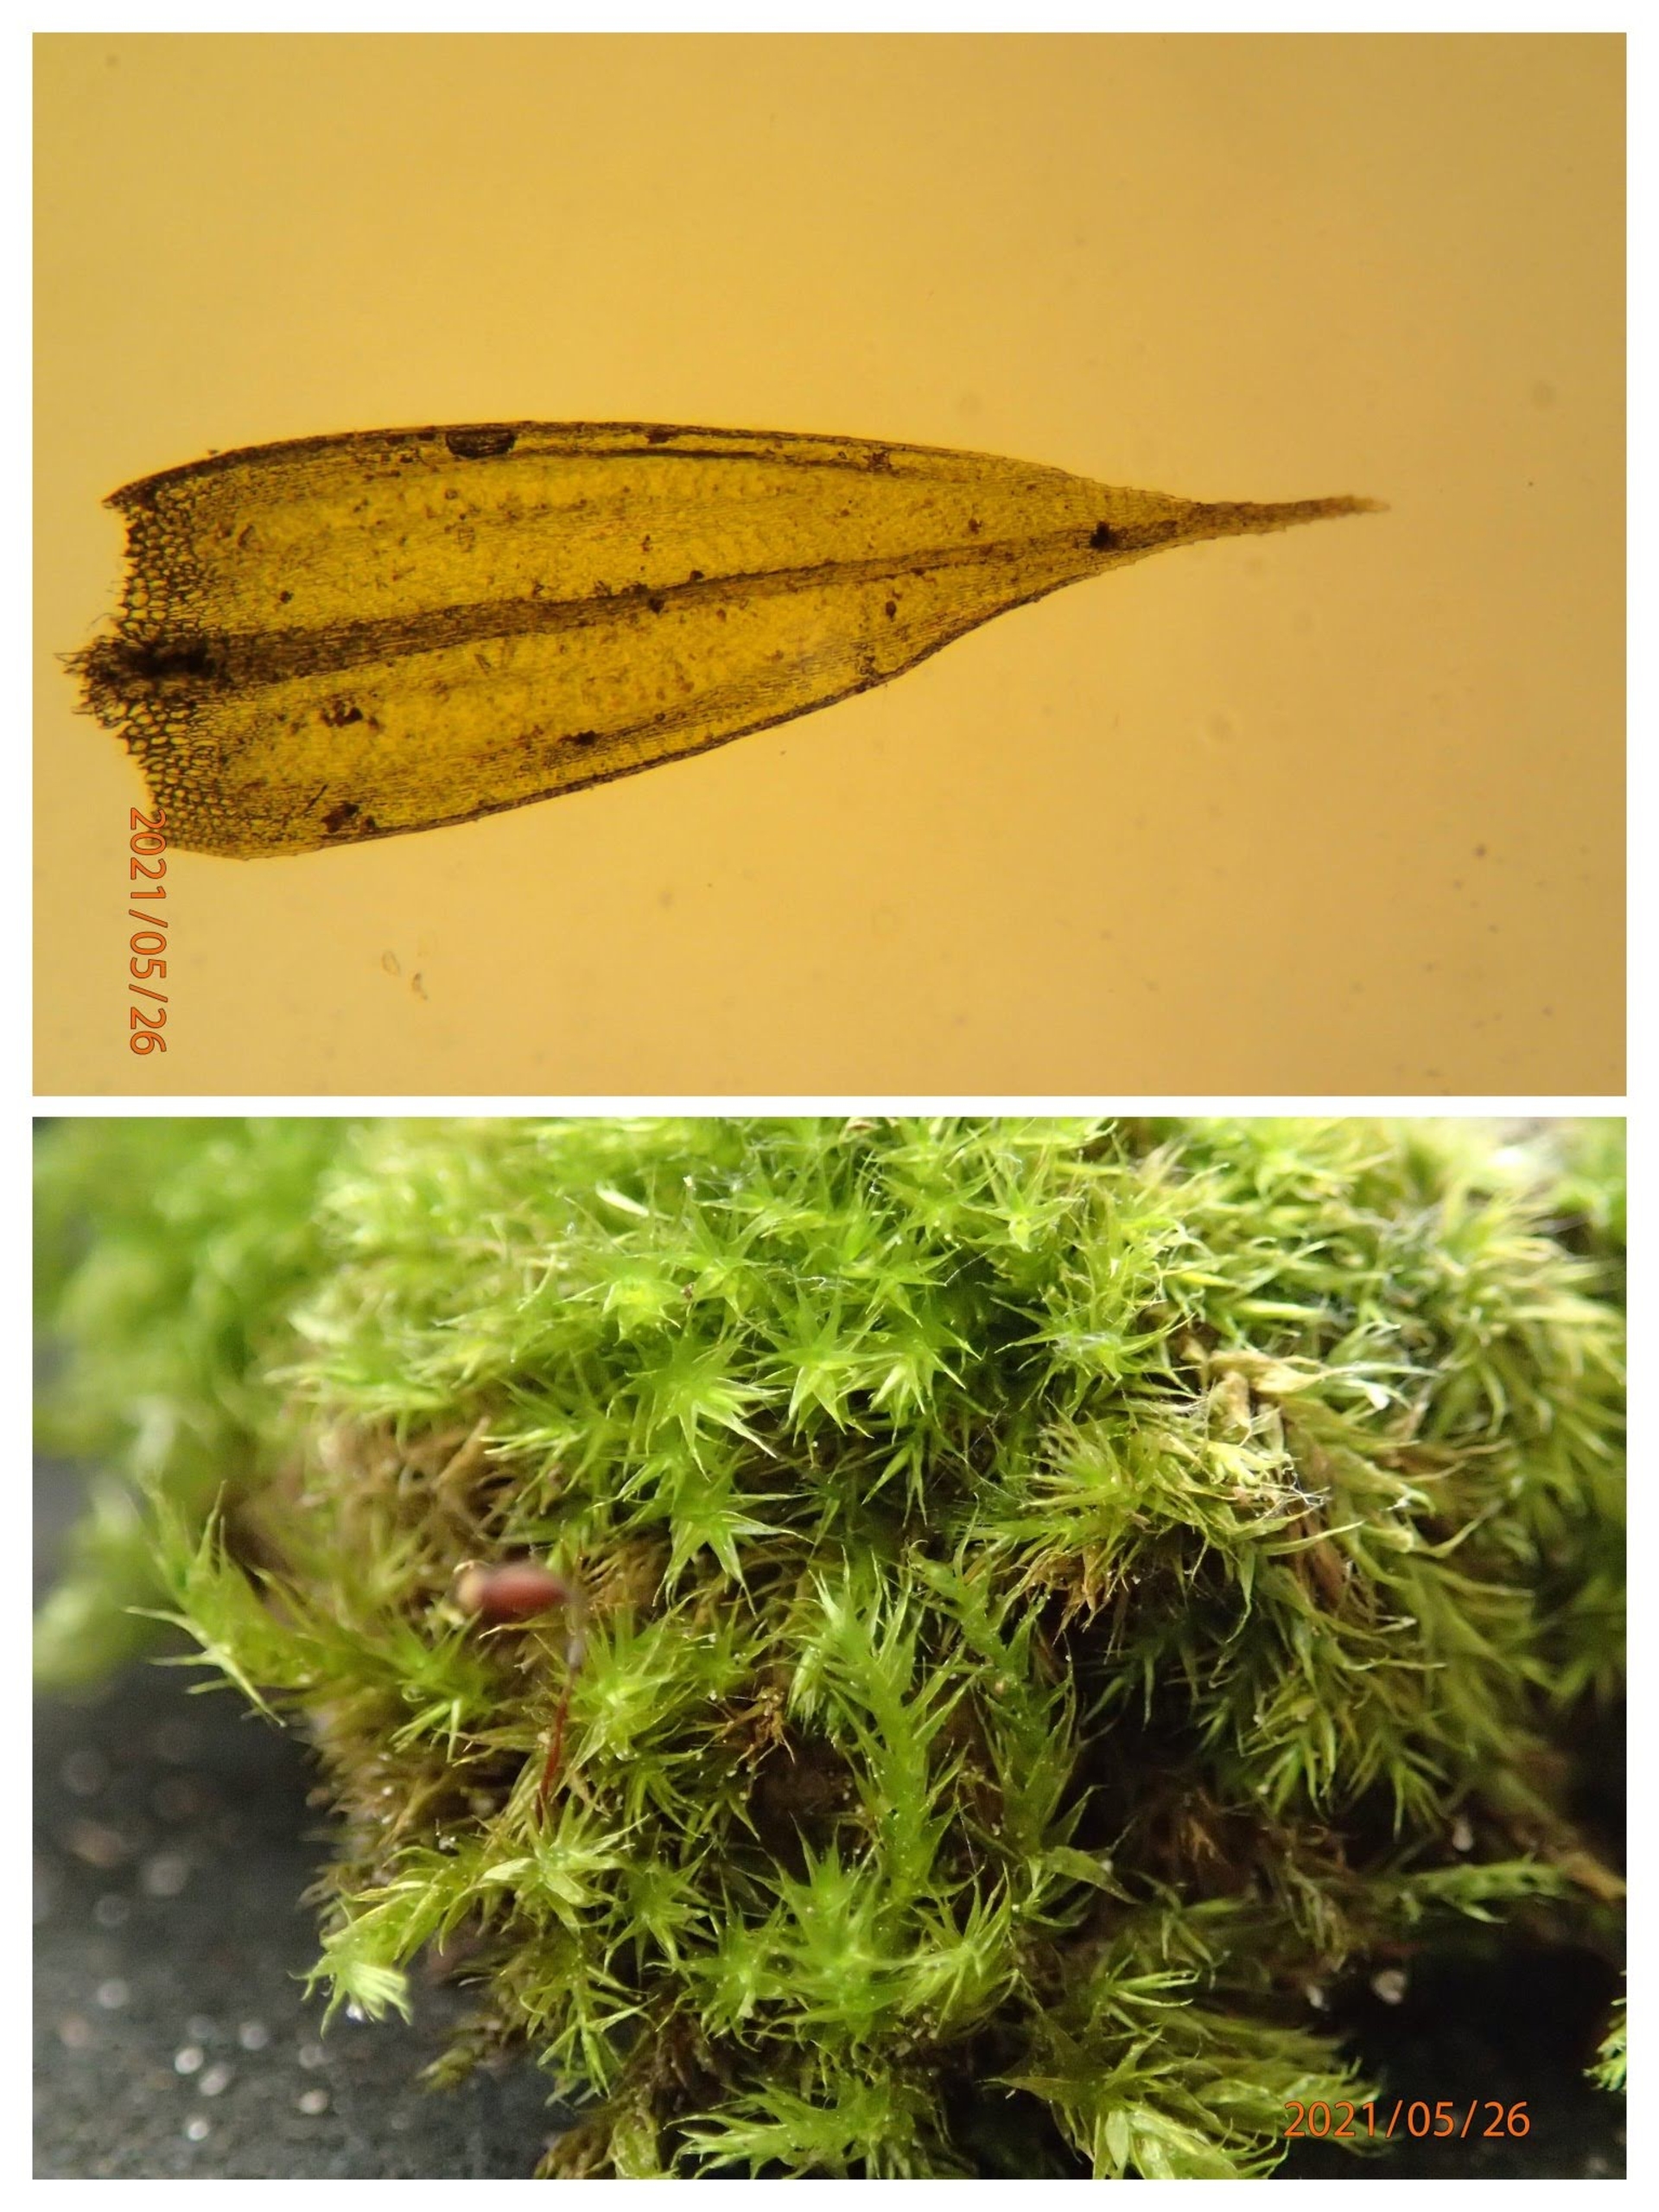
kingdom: Plantae
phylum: Bryophyta
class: Bryopsida
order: Hypnales
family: Brachytheciaceae
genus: Sciuro-hypnum
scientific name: Sciuro-hypnum populeum
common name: Park-kortkapsel
